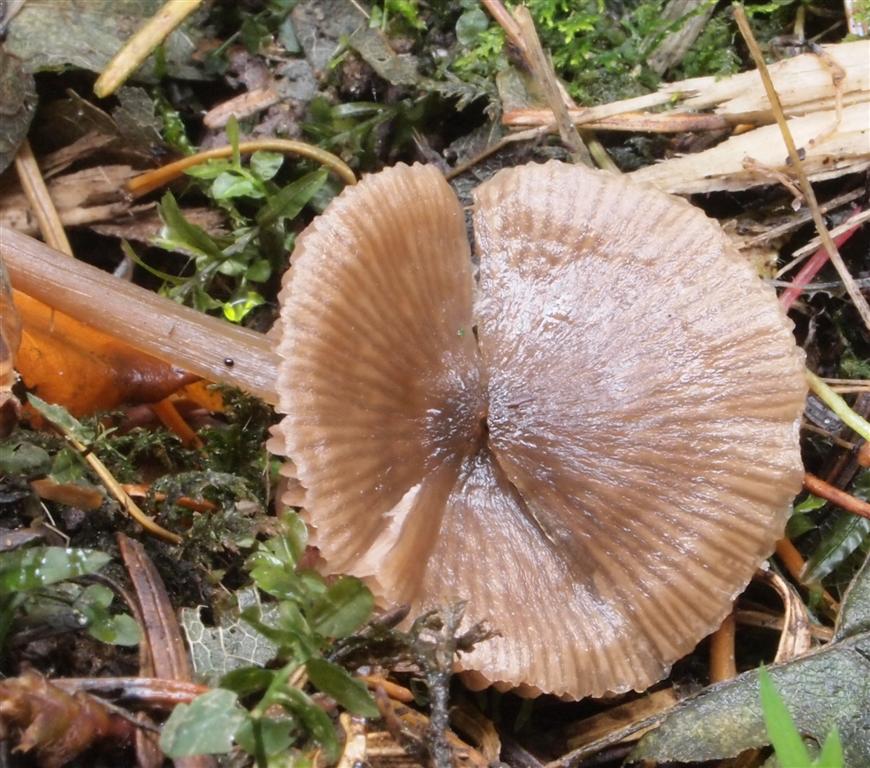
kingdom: Fungi
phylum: Basidiomycota
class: Agaricomycetes
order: Agaricales
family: Entolomataceae
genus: Entoloma
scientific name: Entoloma
